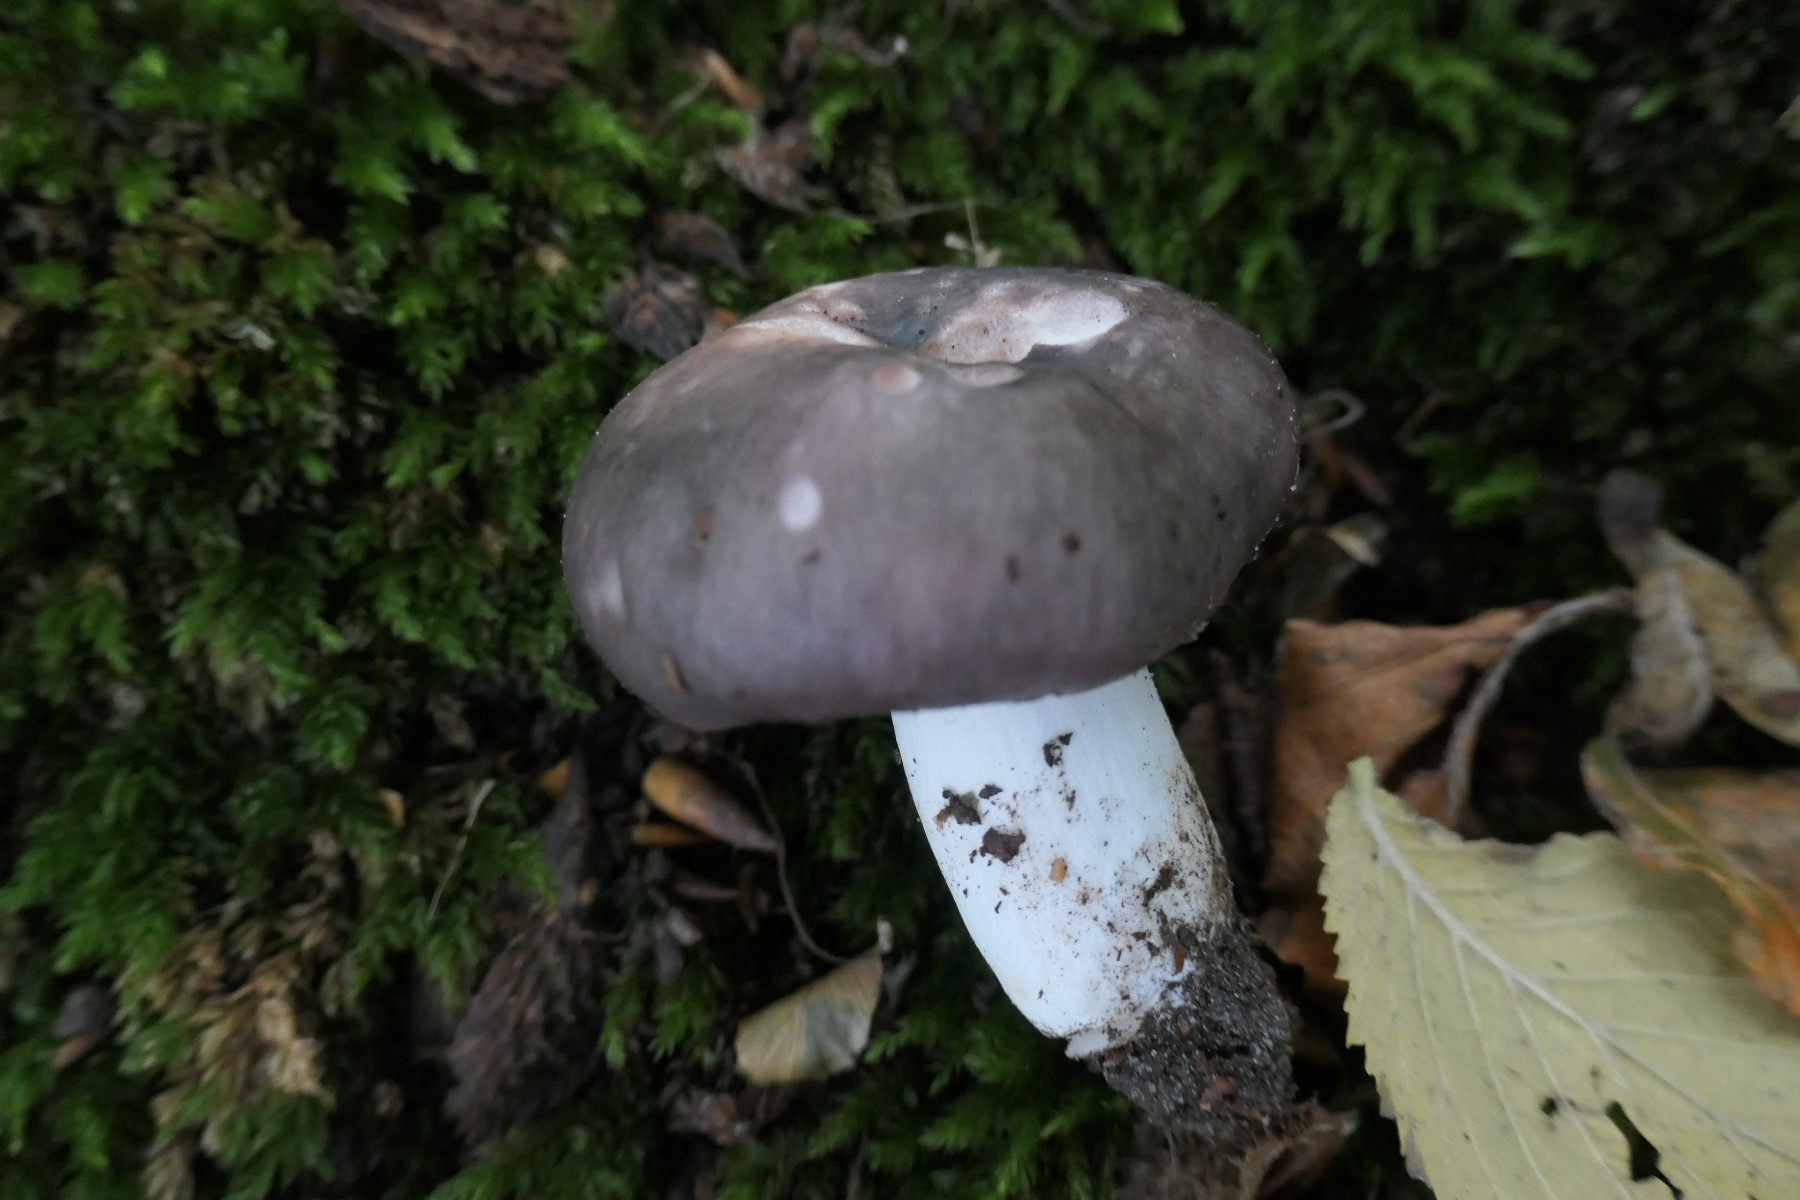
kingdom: Fungi
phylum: Basidiomycota
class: Agaricomycetes
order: Russulales
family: Russulaceae
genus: Russula
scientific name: Russula cyanoxantha
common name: broget skørhat
